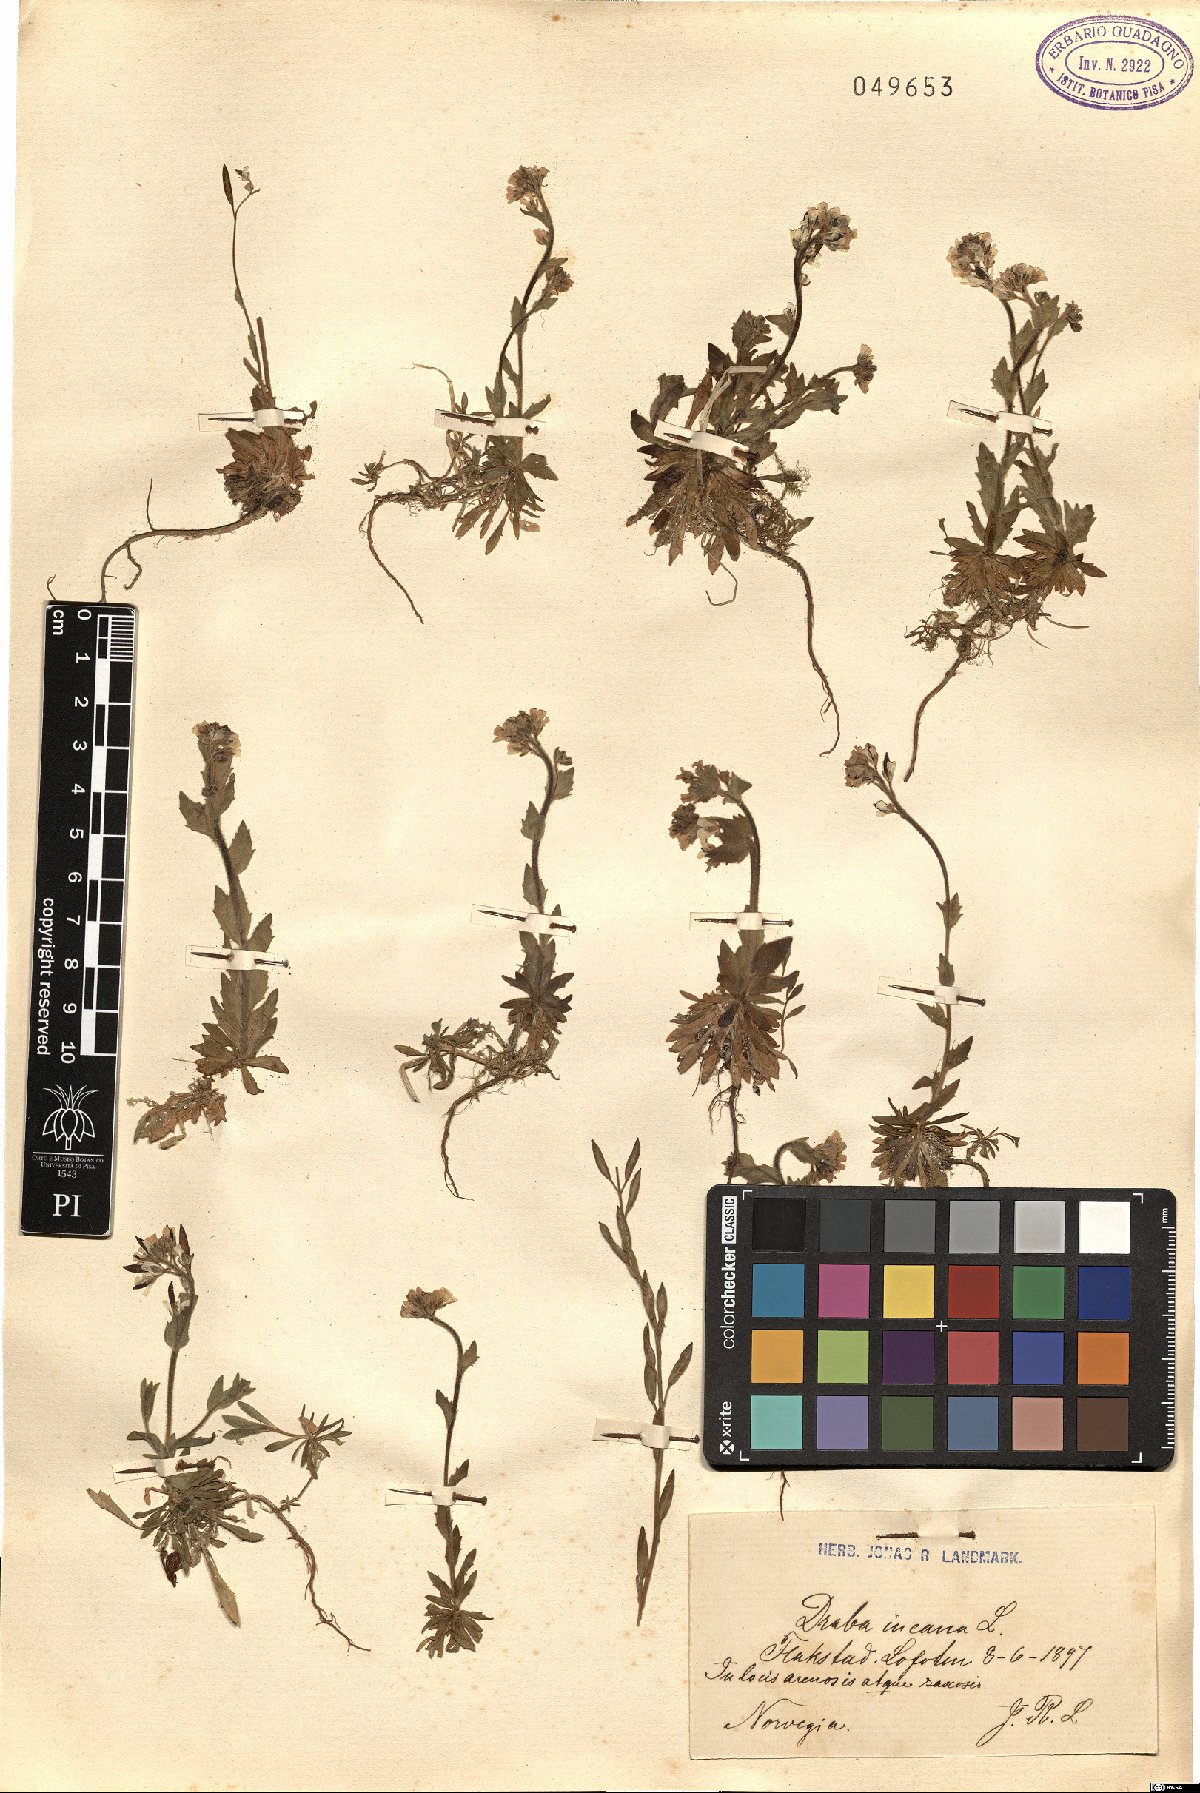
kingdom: Plantae
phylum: Tracheophyta
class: Magnoliopsida
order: Brassicales
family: Brassicaceae
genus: Draba
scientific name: Draba incana
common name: Hoary whitlow-grass
